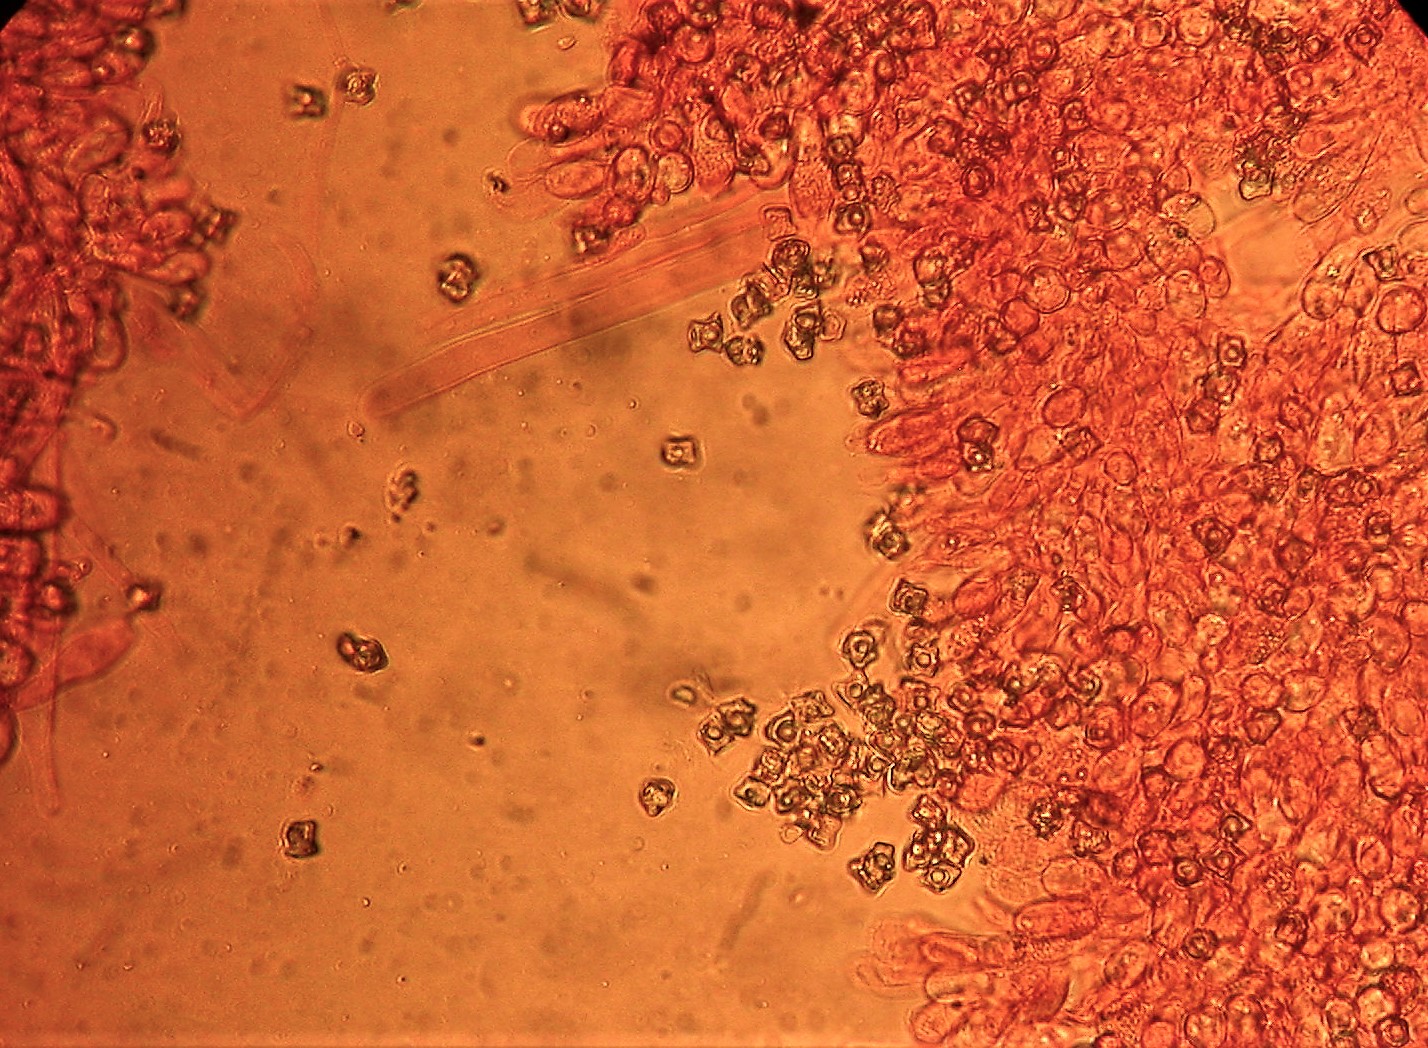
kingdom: Fungi
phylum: Basidiomycota
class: Agaricomycetes
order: Agaricales
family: Entolomataceae
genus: Entoloma
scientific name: Entoloma conferendum
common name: stjernesporet rødblad
